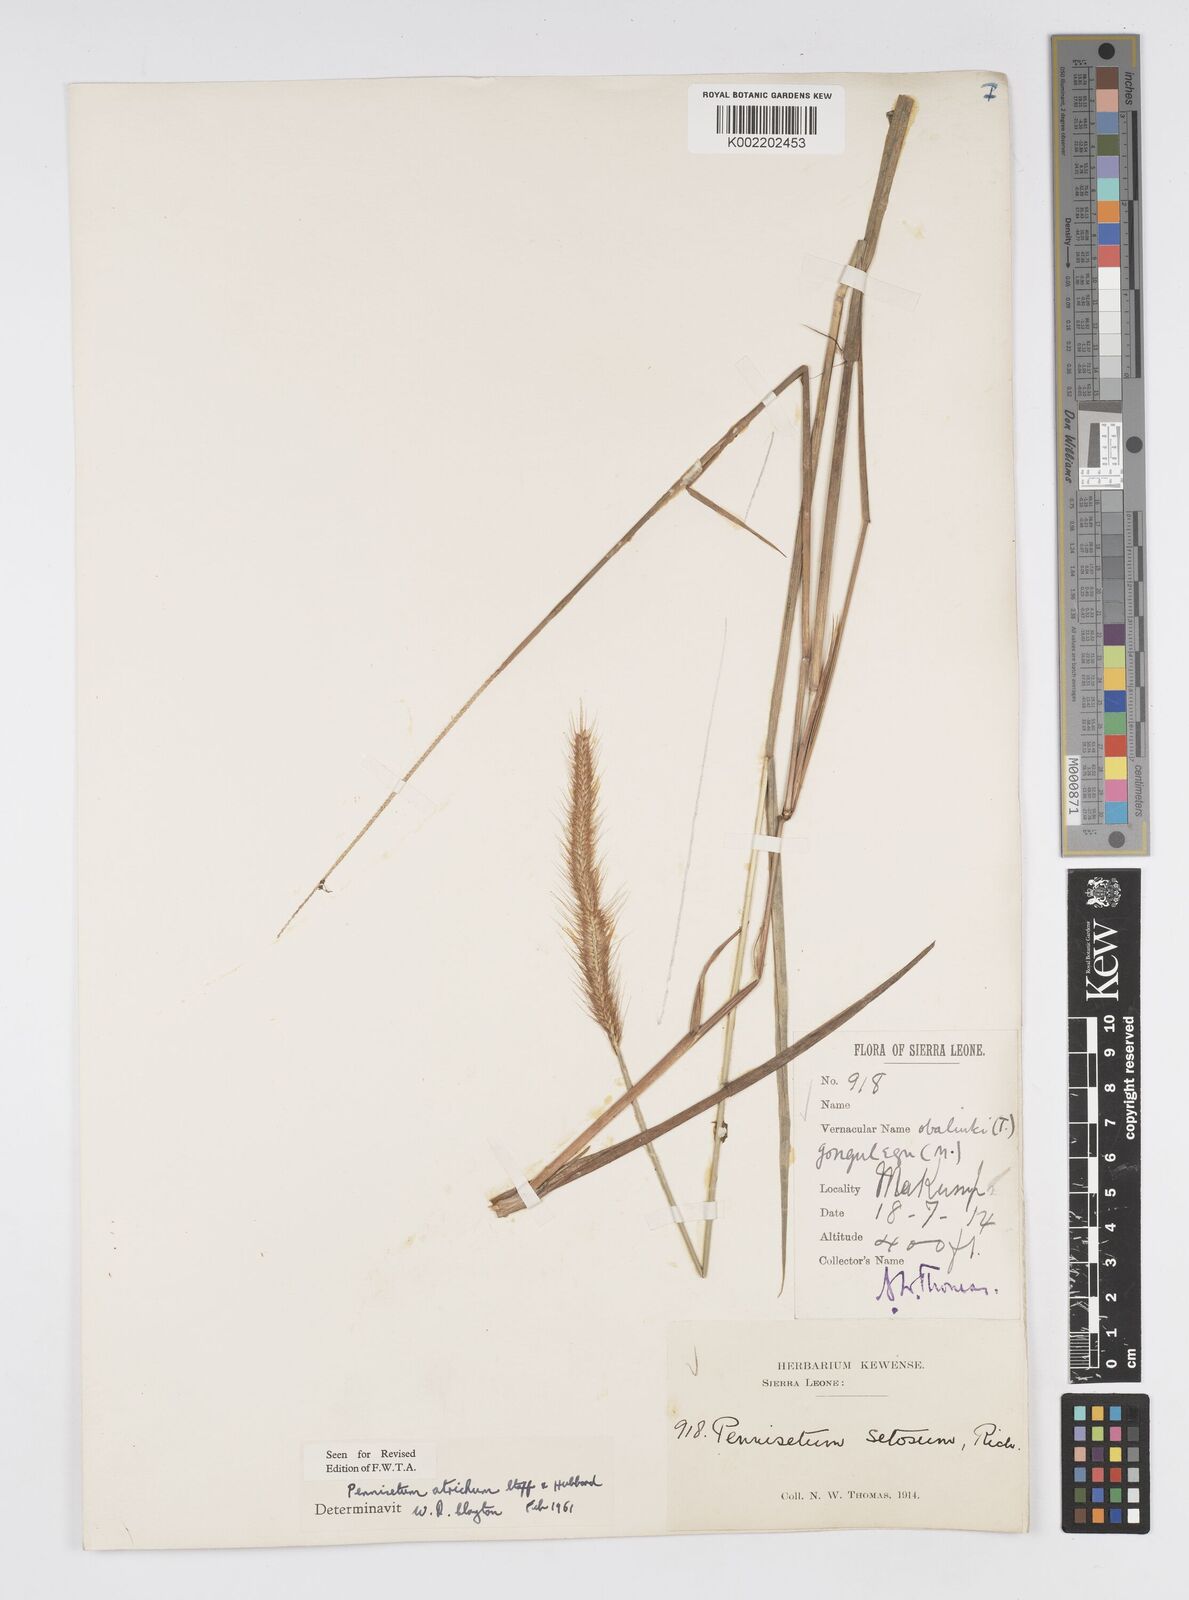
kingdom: Plantae
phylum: Tracheophyta
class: Liliopsida
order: Poales
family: Poaceae
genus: Cenchrus
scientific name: Cenchrus setosus
